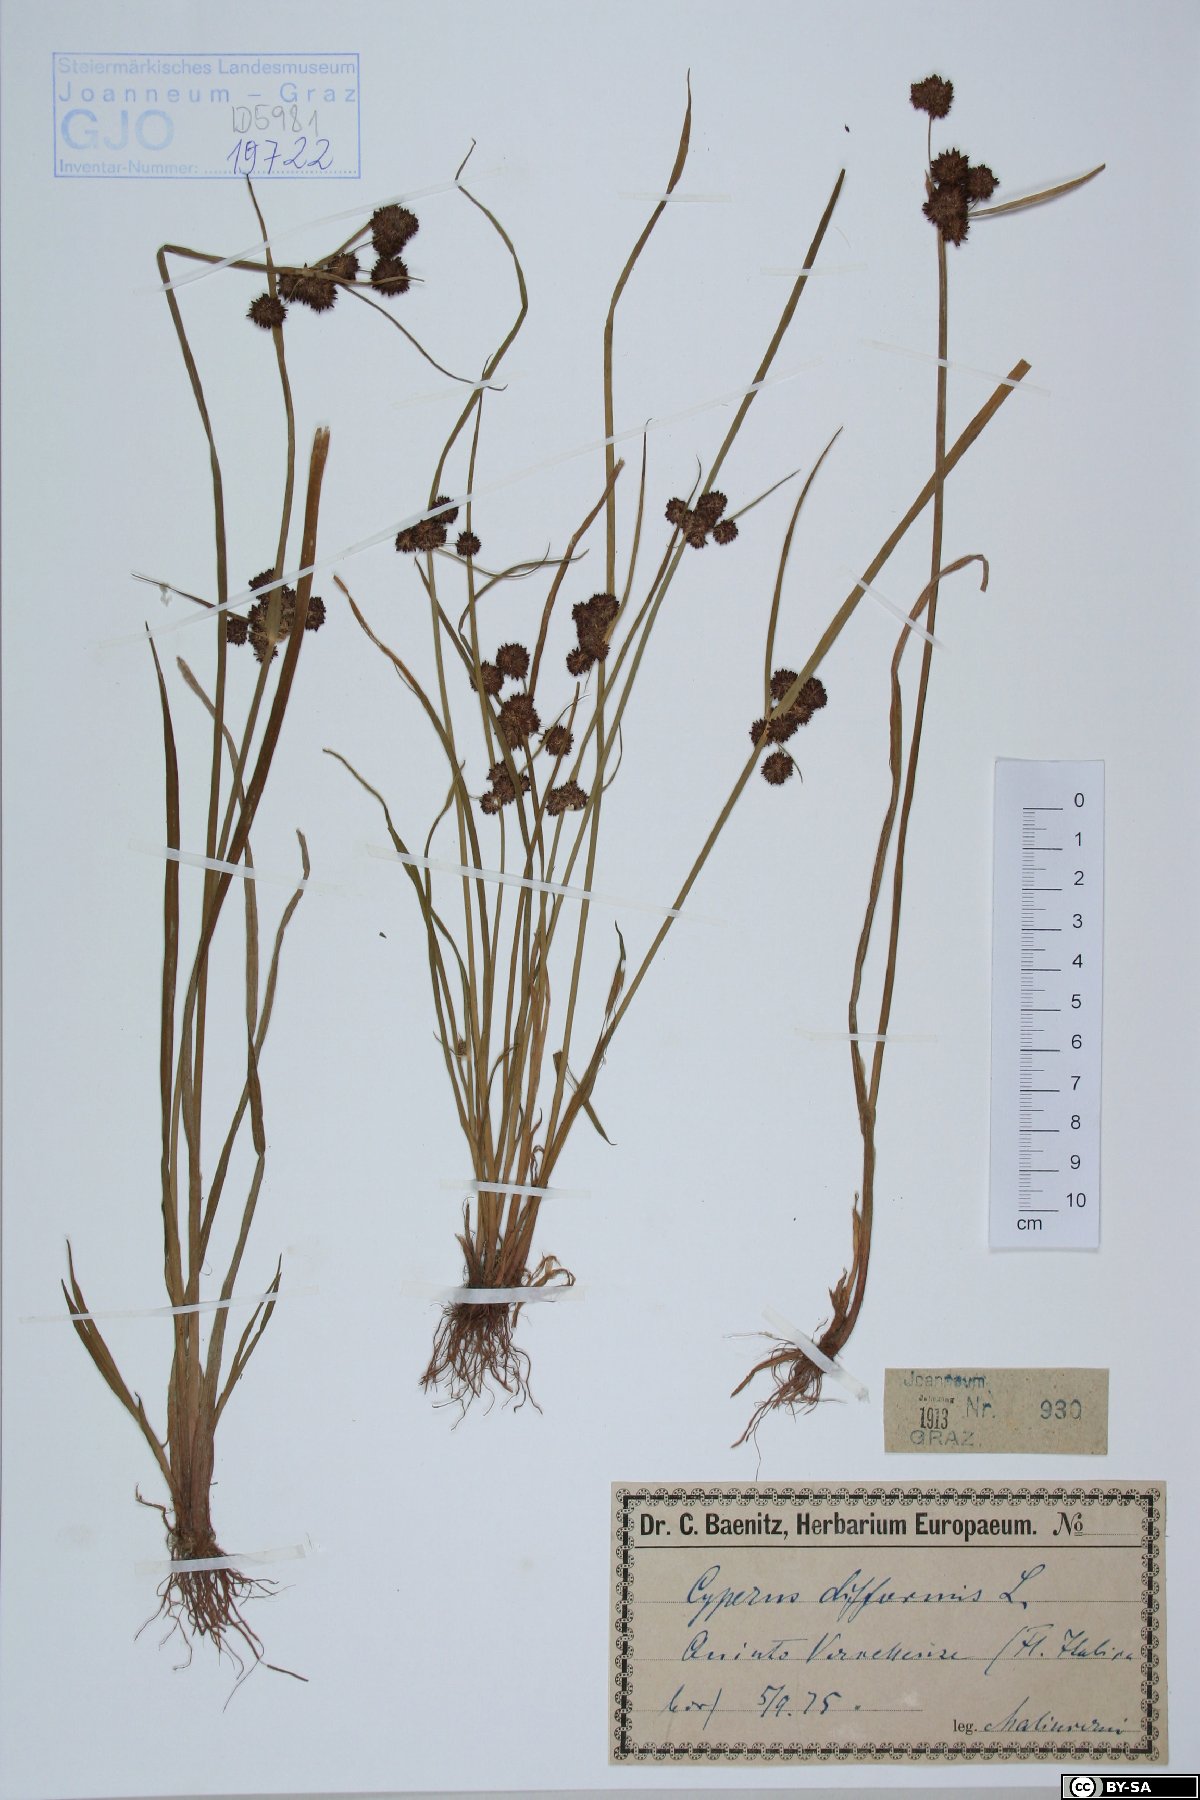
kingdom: Plantae
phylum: Tracheophyta
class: Liliopsida
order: Poales
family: Cyperaceae
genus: Cyperus
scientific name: Cyperus difformis
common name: Variable flatsedge
